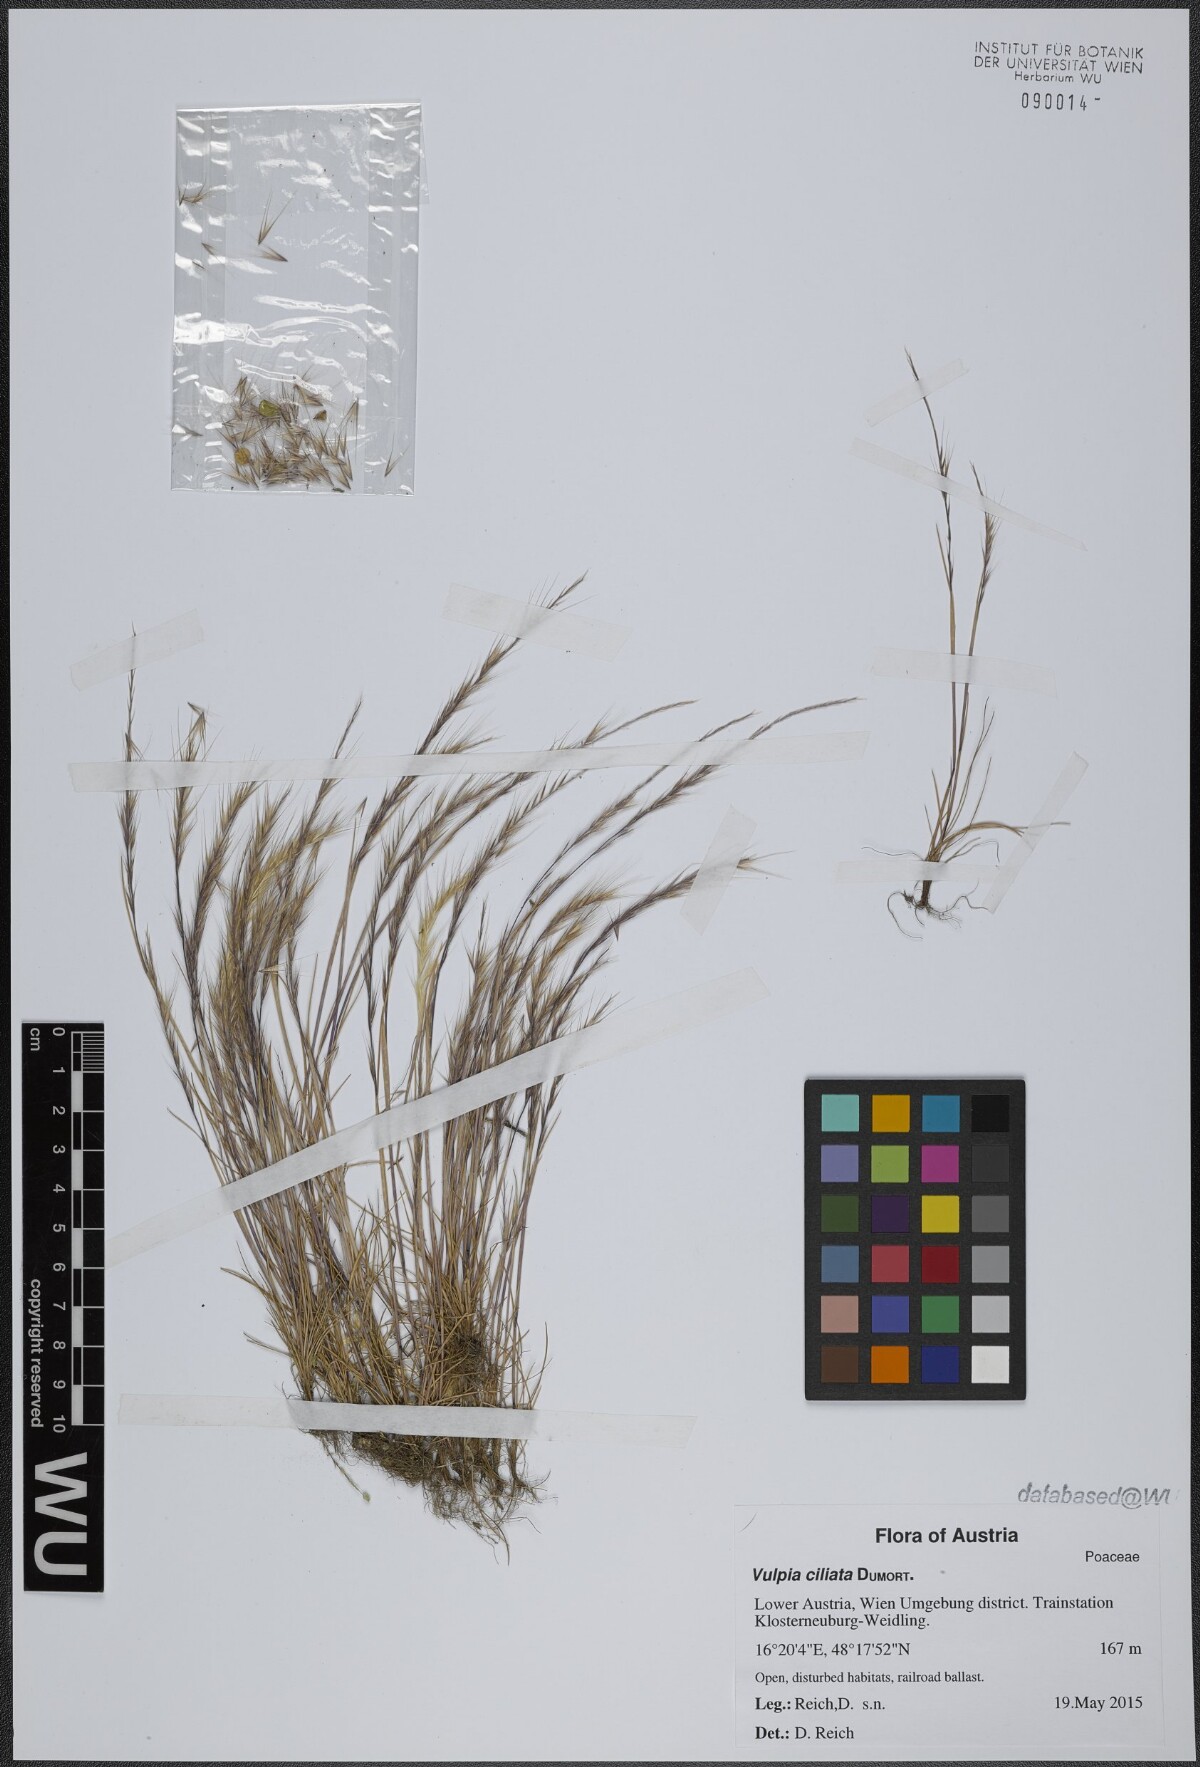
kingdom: Plantae
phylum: Tracheophyta
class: Liliopsida
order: Poales
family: Poaceae
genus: Festuca
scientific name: Festuca ambigua
